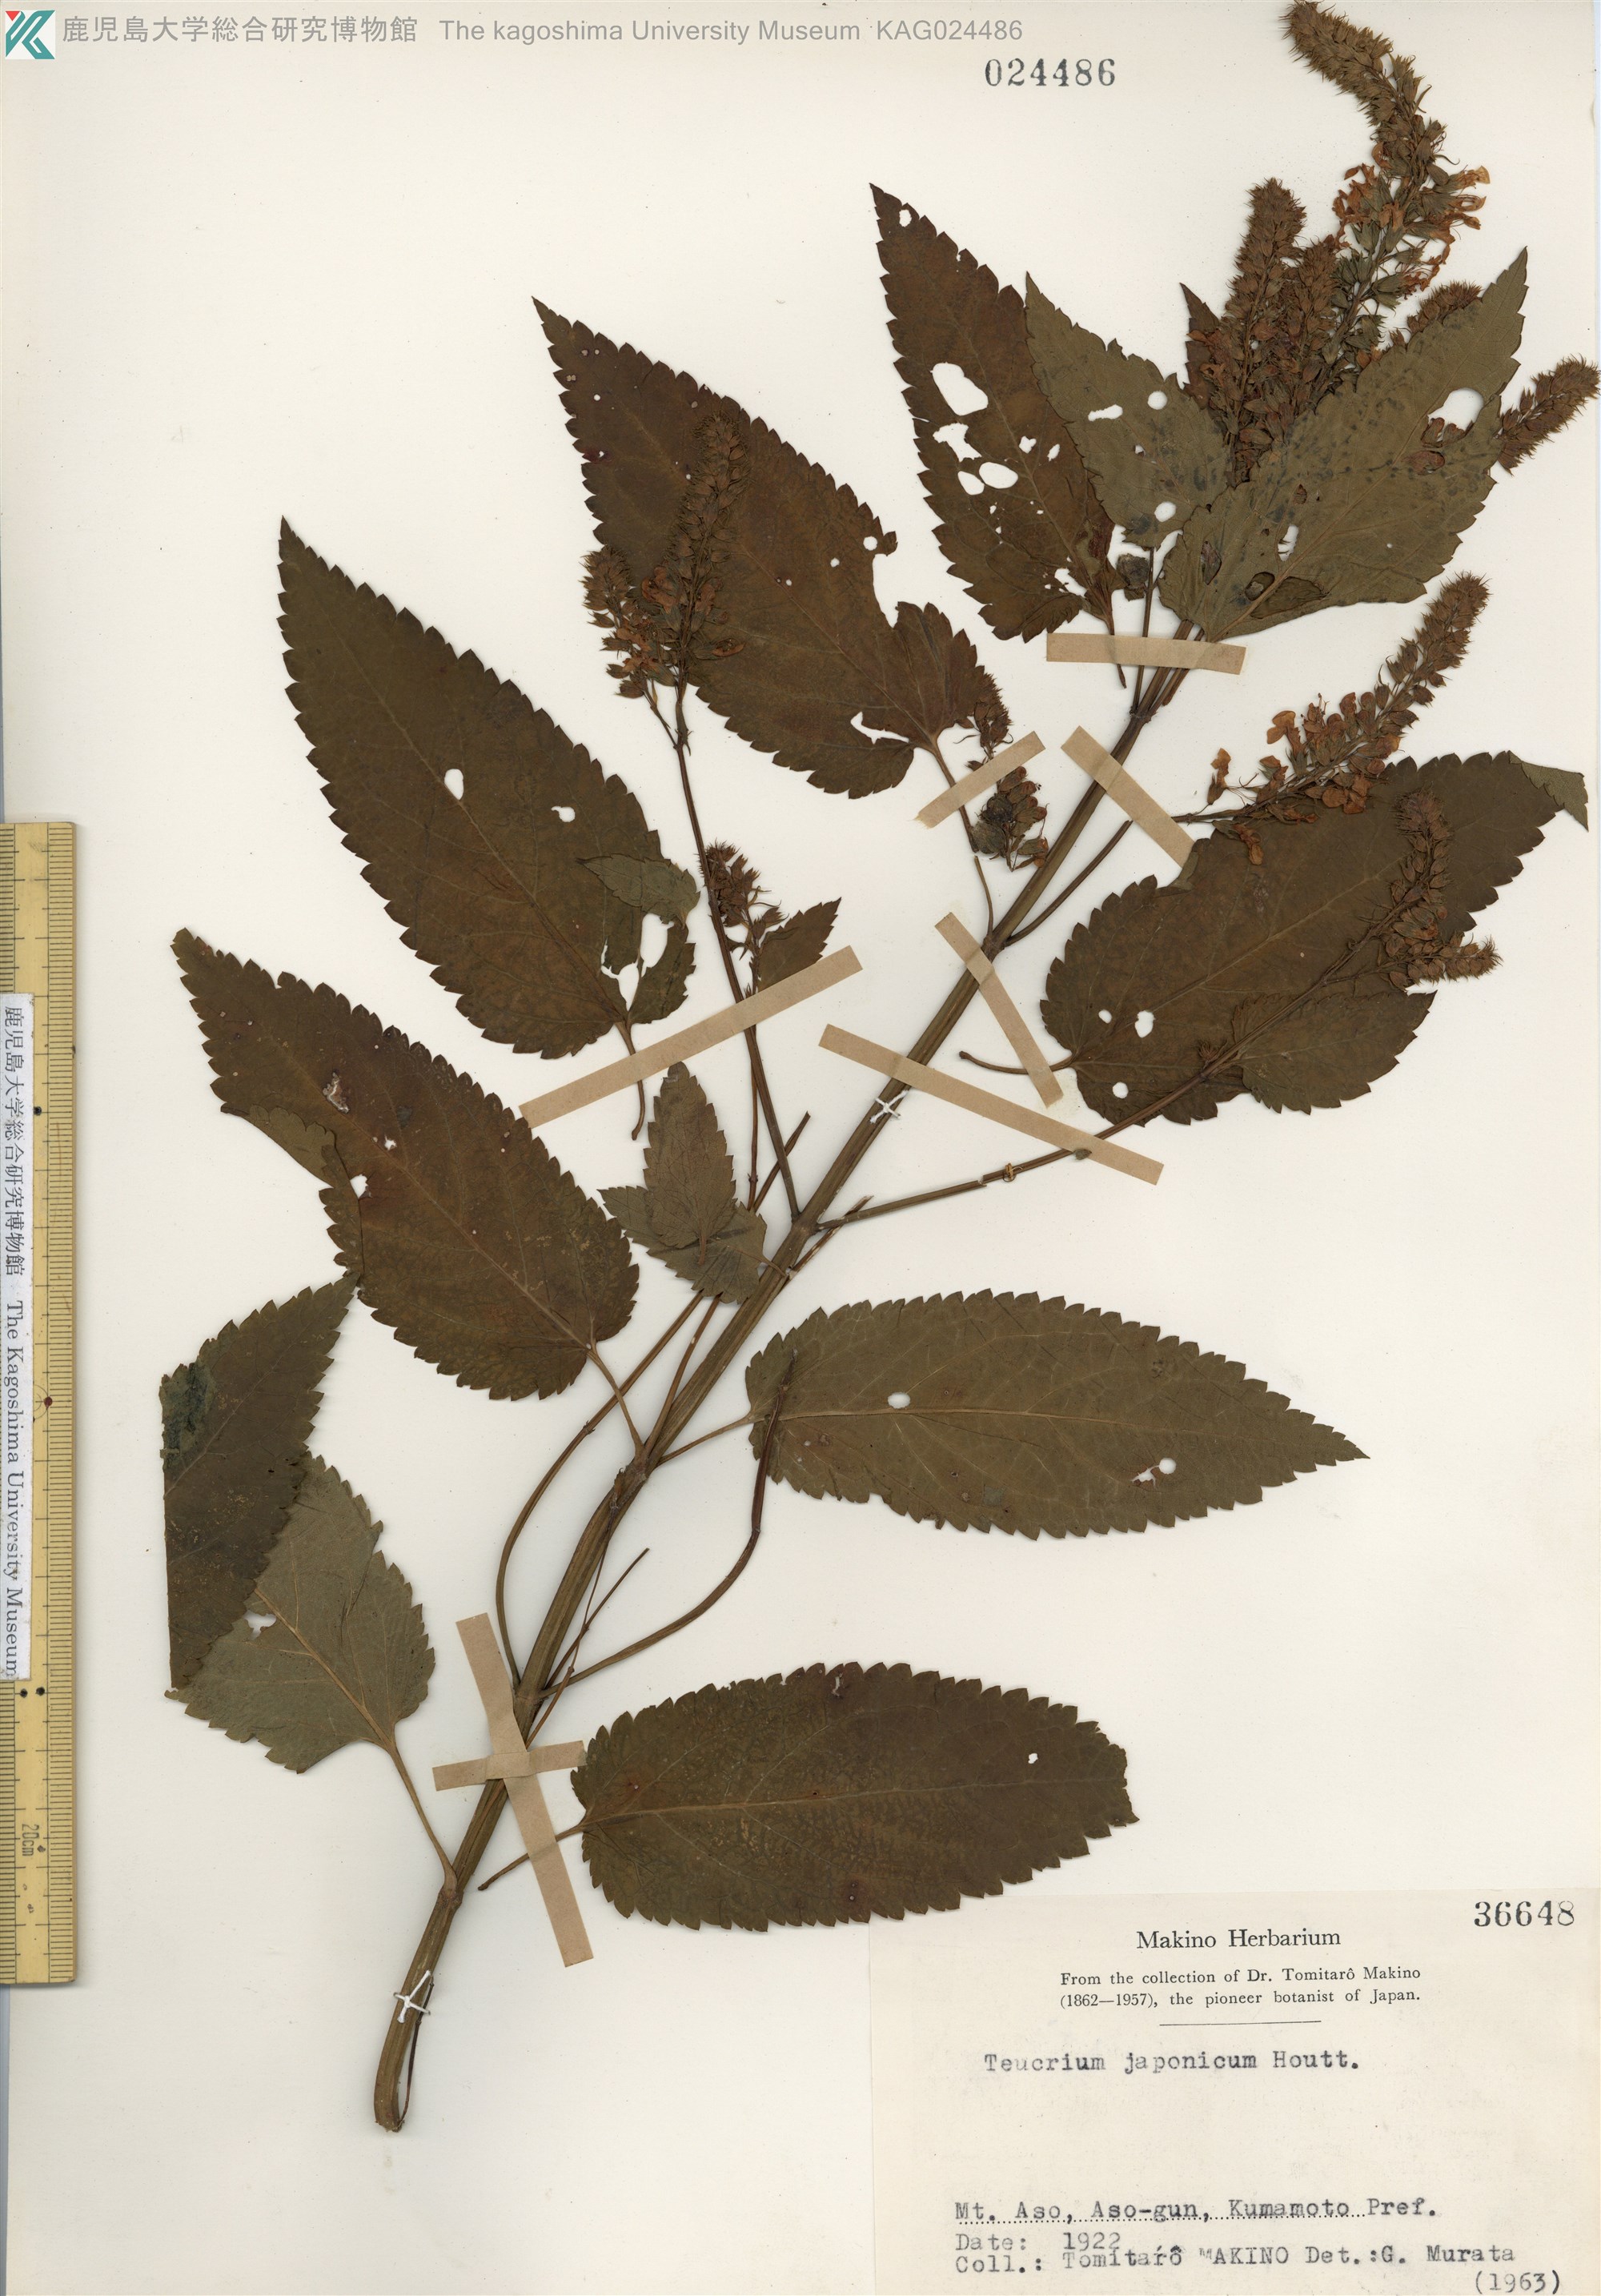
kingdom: Plantae
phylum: Tracheophyta
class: Magnoliopsida
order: Lamiales
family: Lamiaceae
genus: Teucrium
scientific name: Teucrium japonicum
